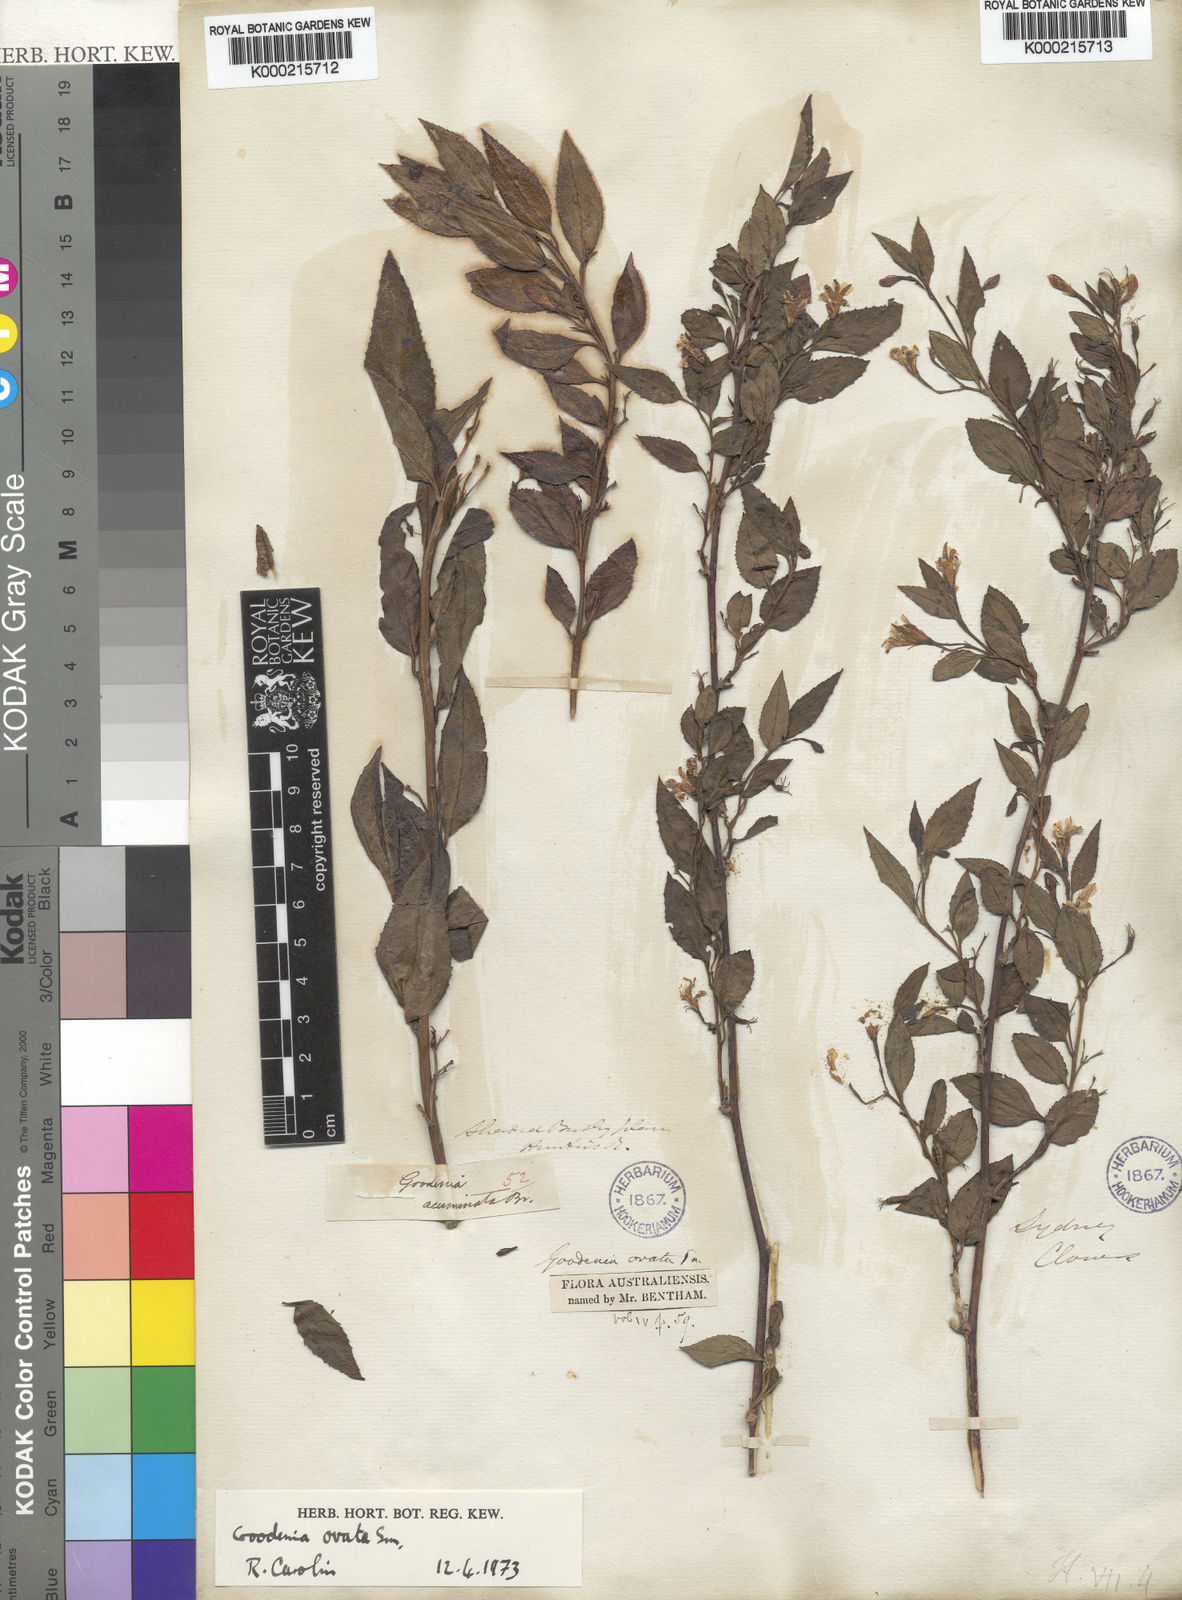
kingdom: Plantae
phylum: Tracheophyta
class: Magnoliopsida
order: Asterales
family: Goodeniaceae
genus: Goodenia
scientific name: Goodenia ovata
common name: Hop goodenia
